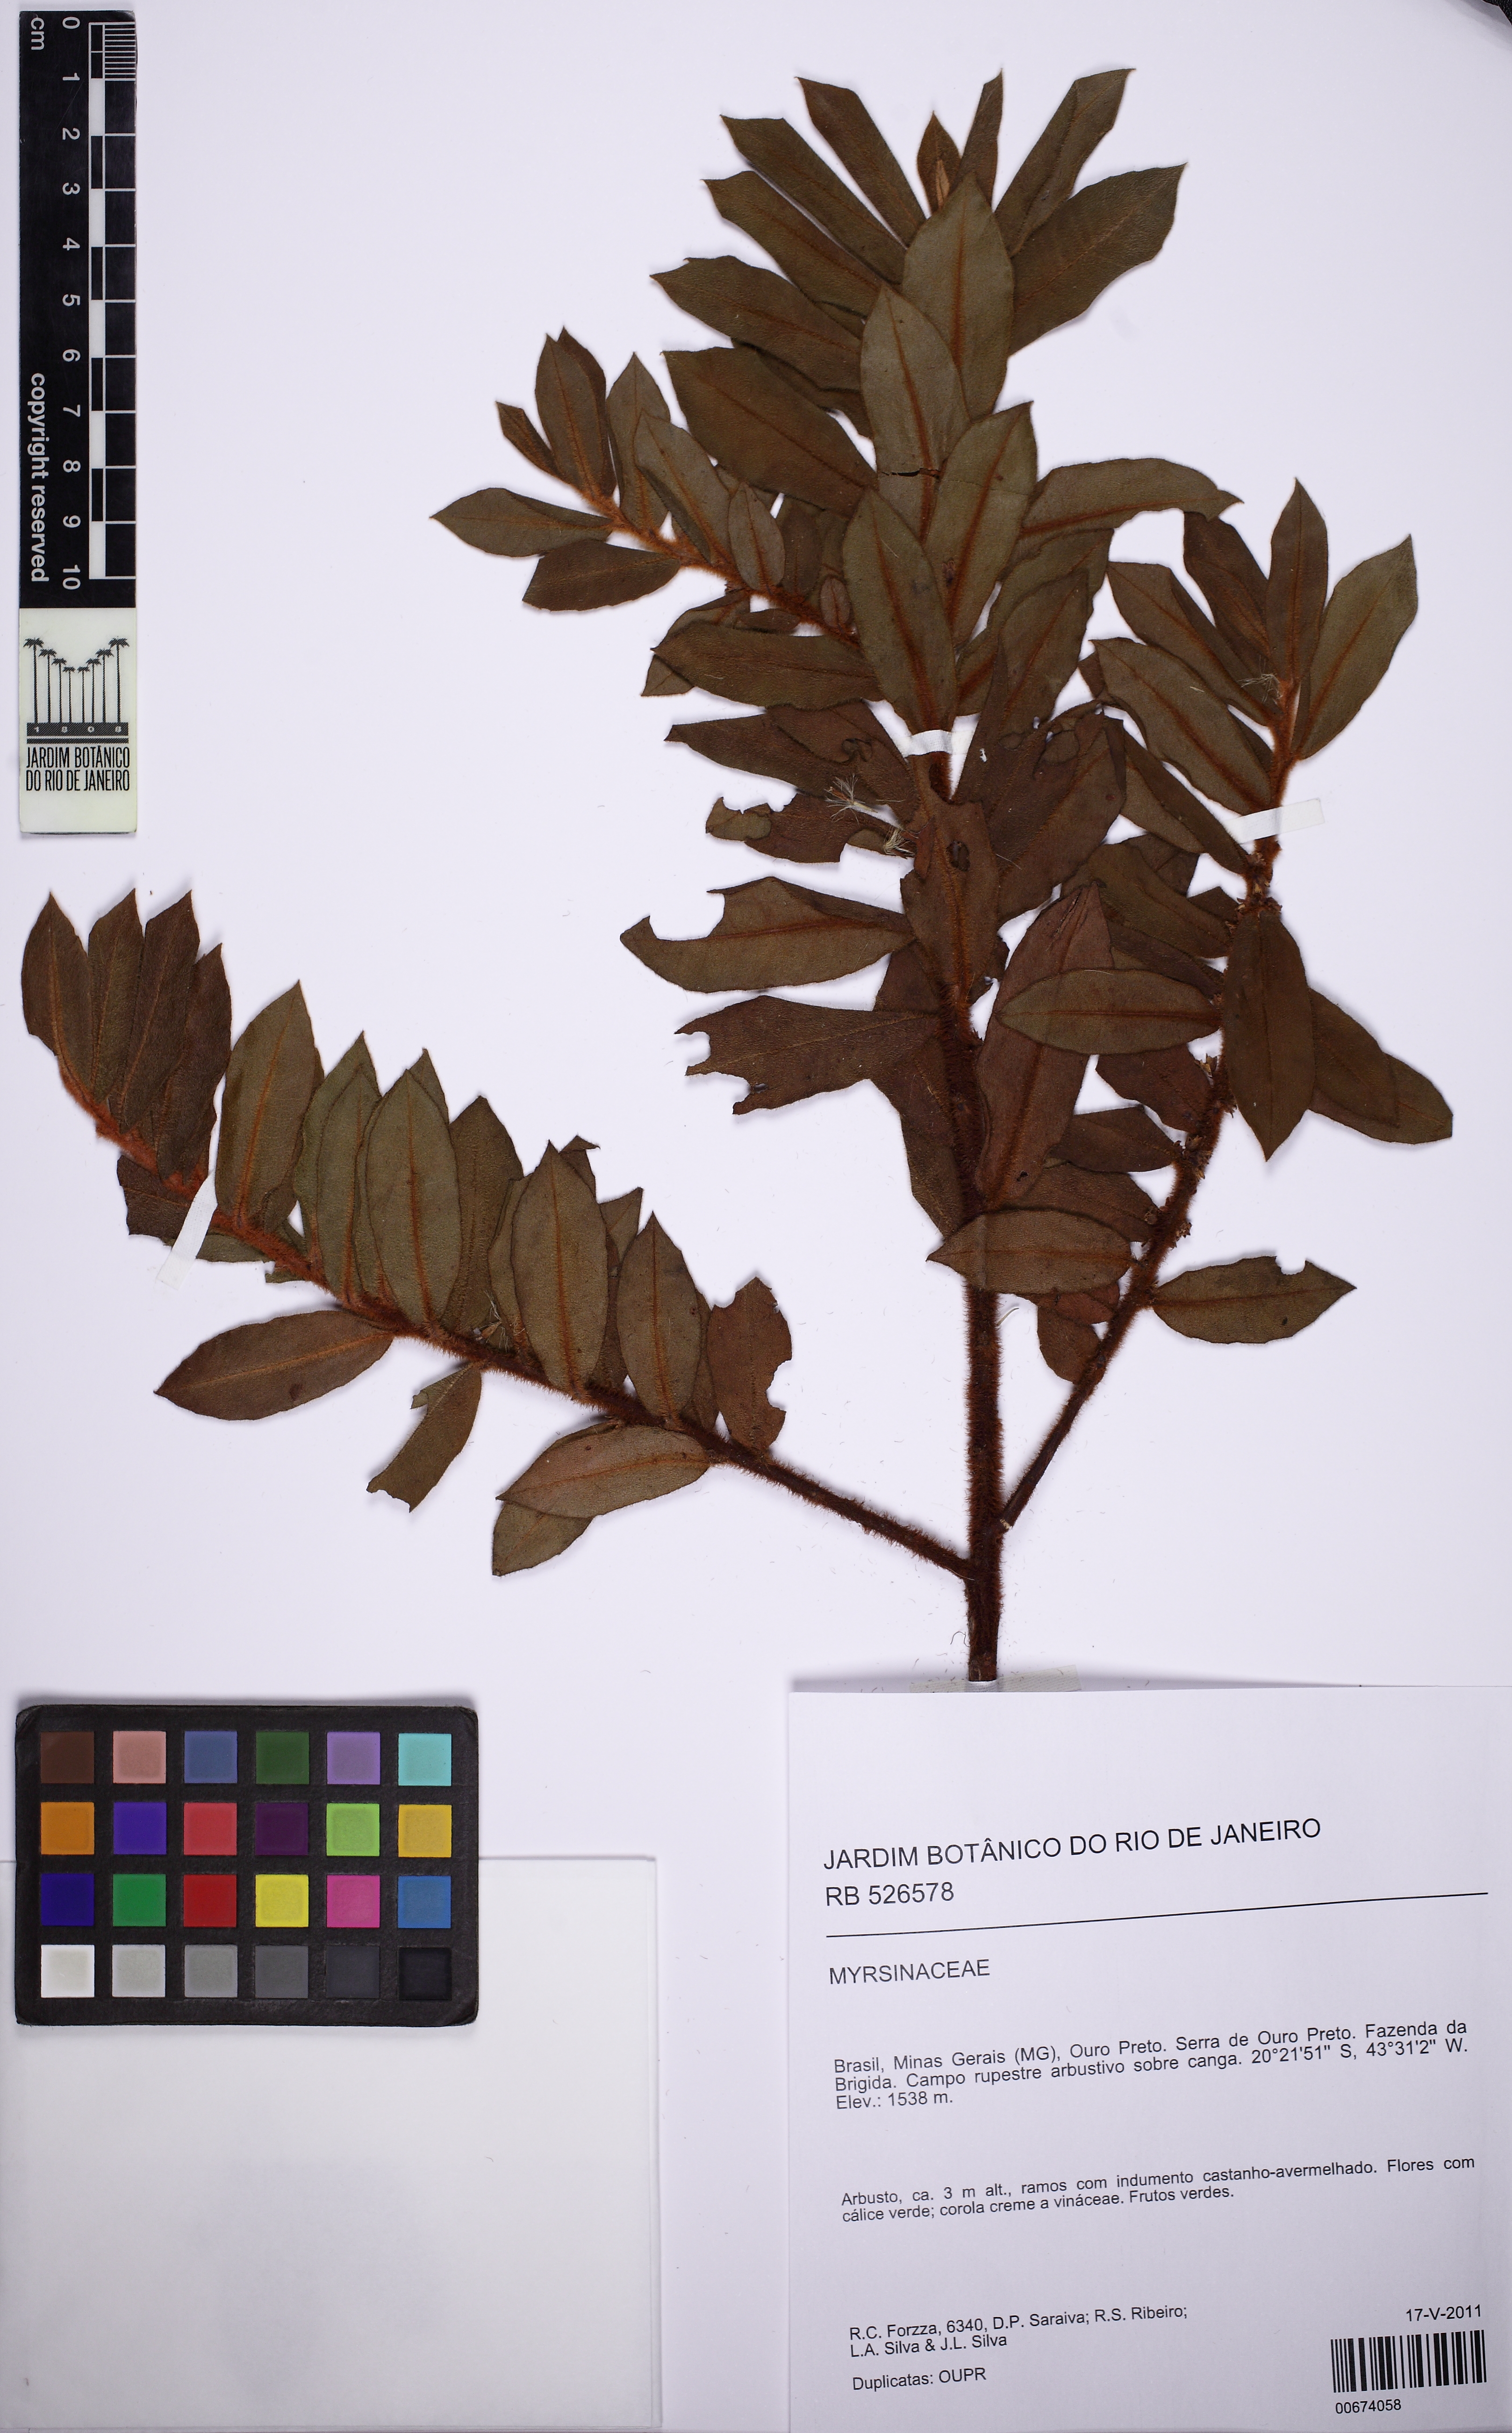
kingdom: Plantae
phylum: Tracheophyta
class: Magnoliopsida
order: Ericales
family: Primulaceae
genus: Myrsine
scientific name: Myrsine villosissima
